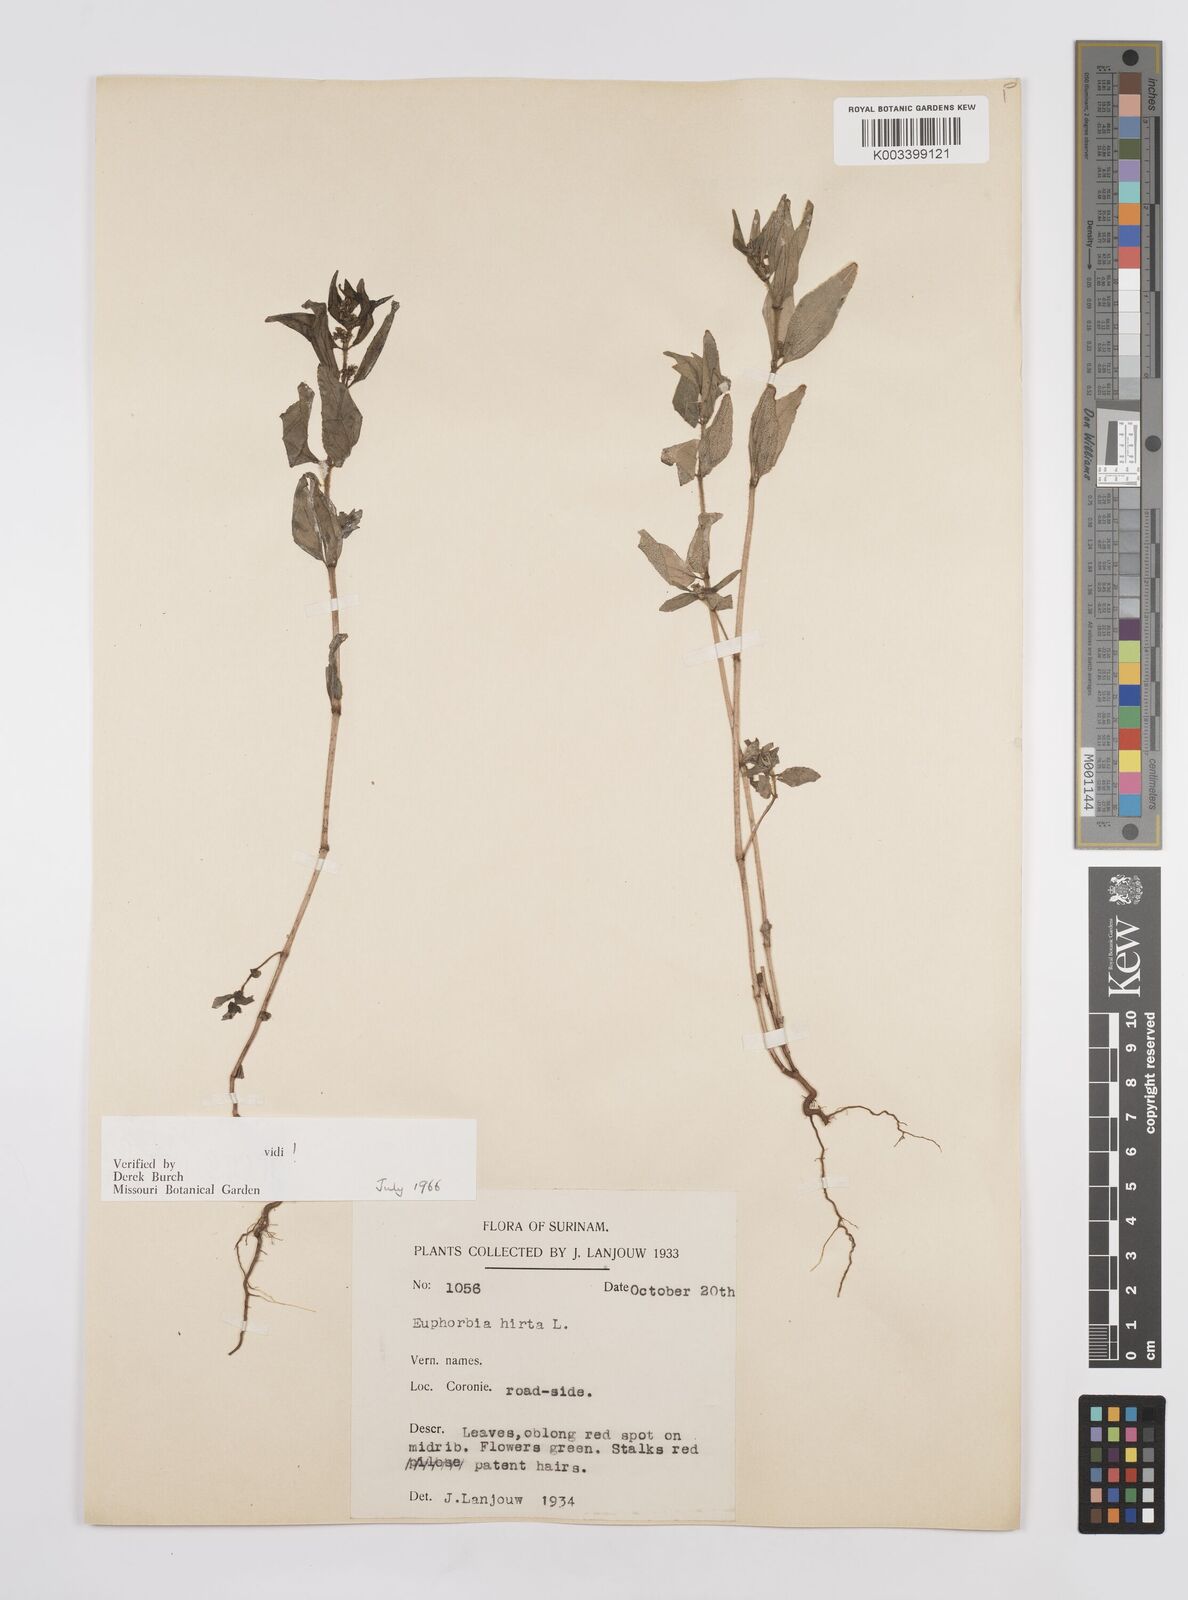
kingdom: Plantae
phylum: Tracheophyta
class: Magnoliopsida
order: Malpighiales
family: Euphorbiaceae
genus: Euphorbia
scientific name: Euphorbia hirta
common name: Pillpod sandmat
